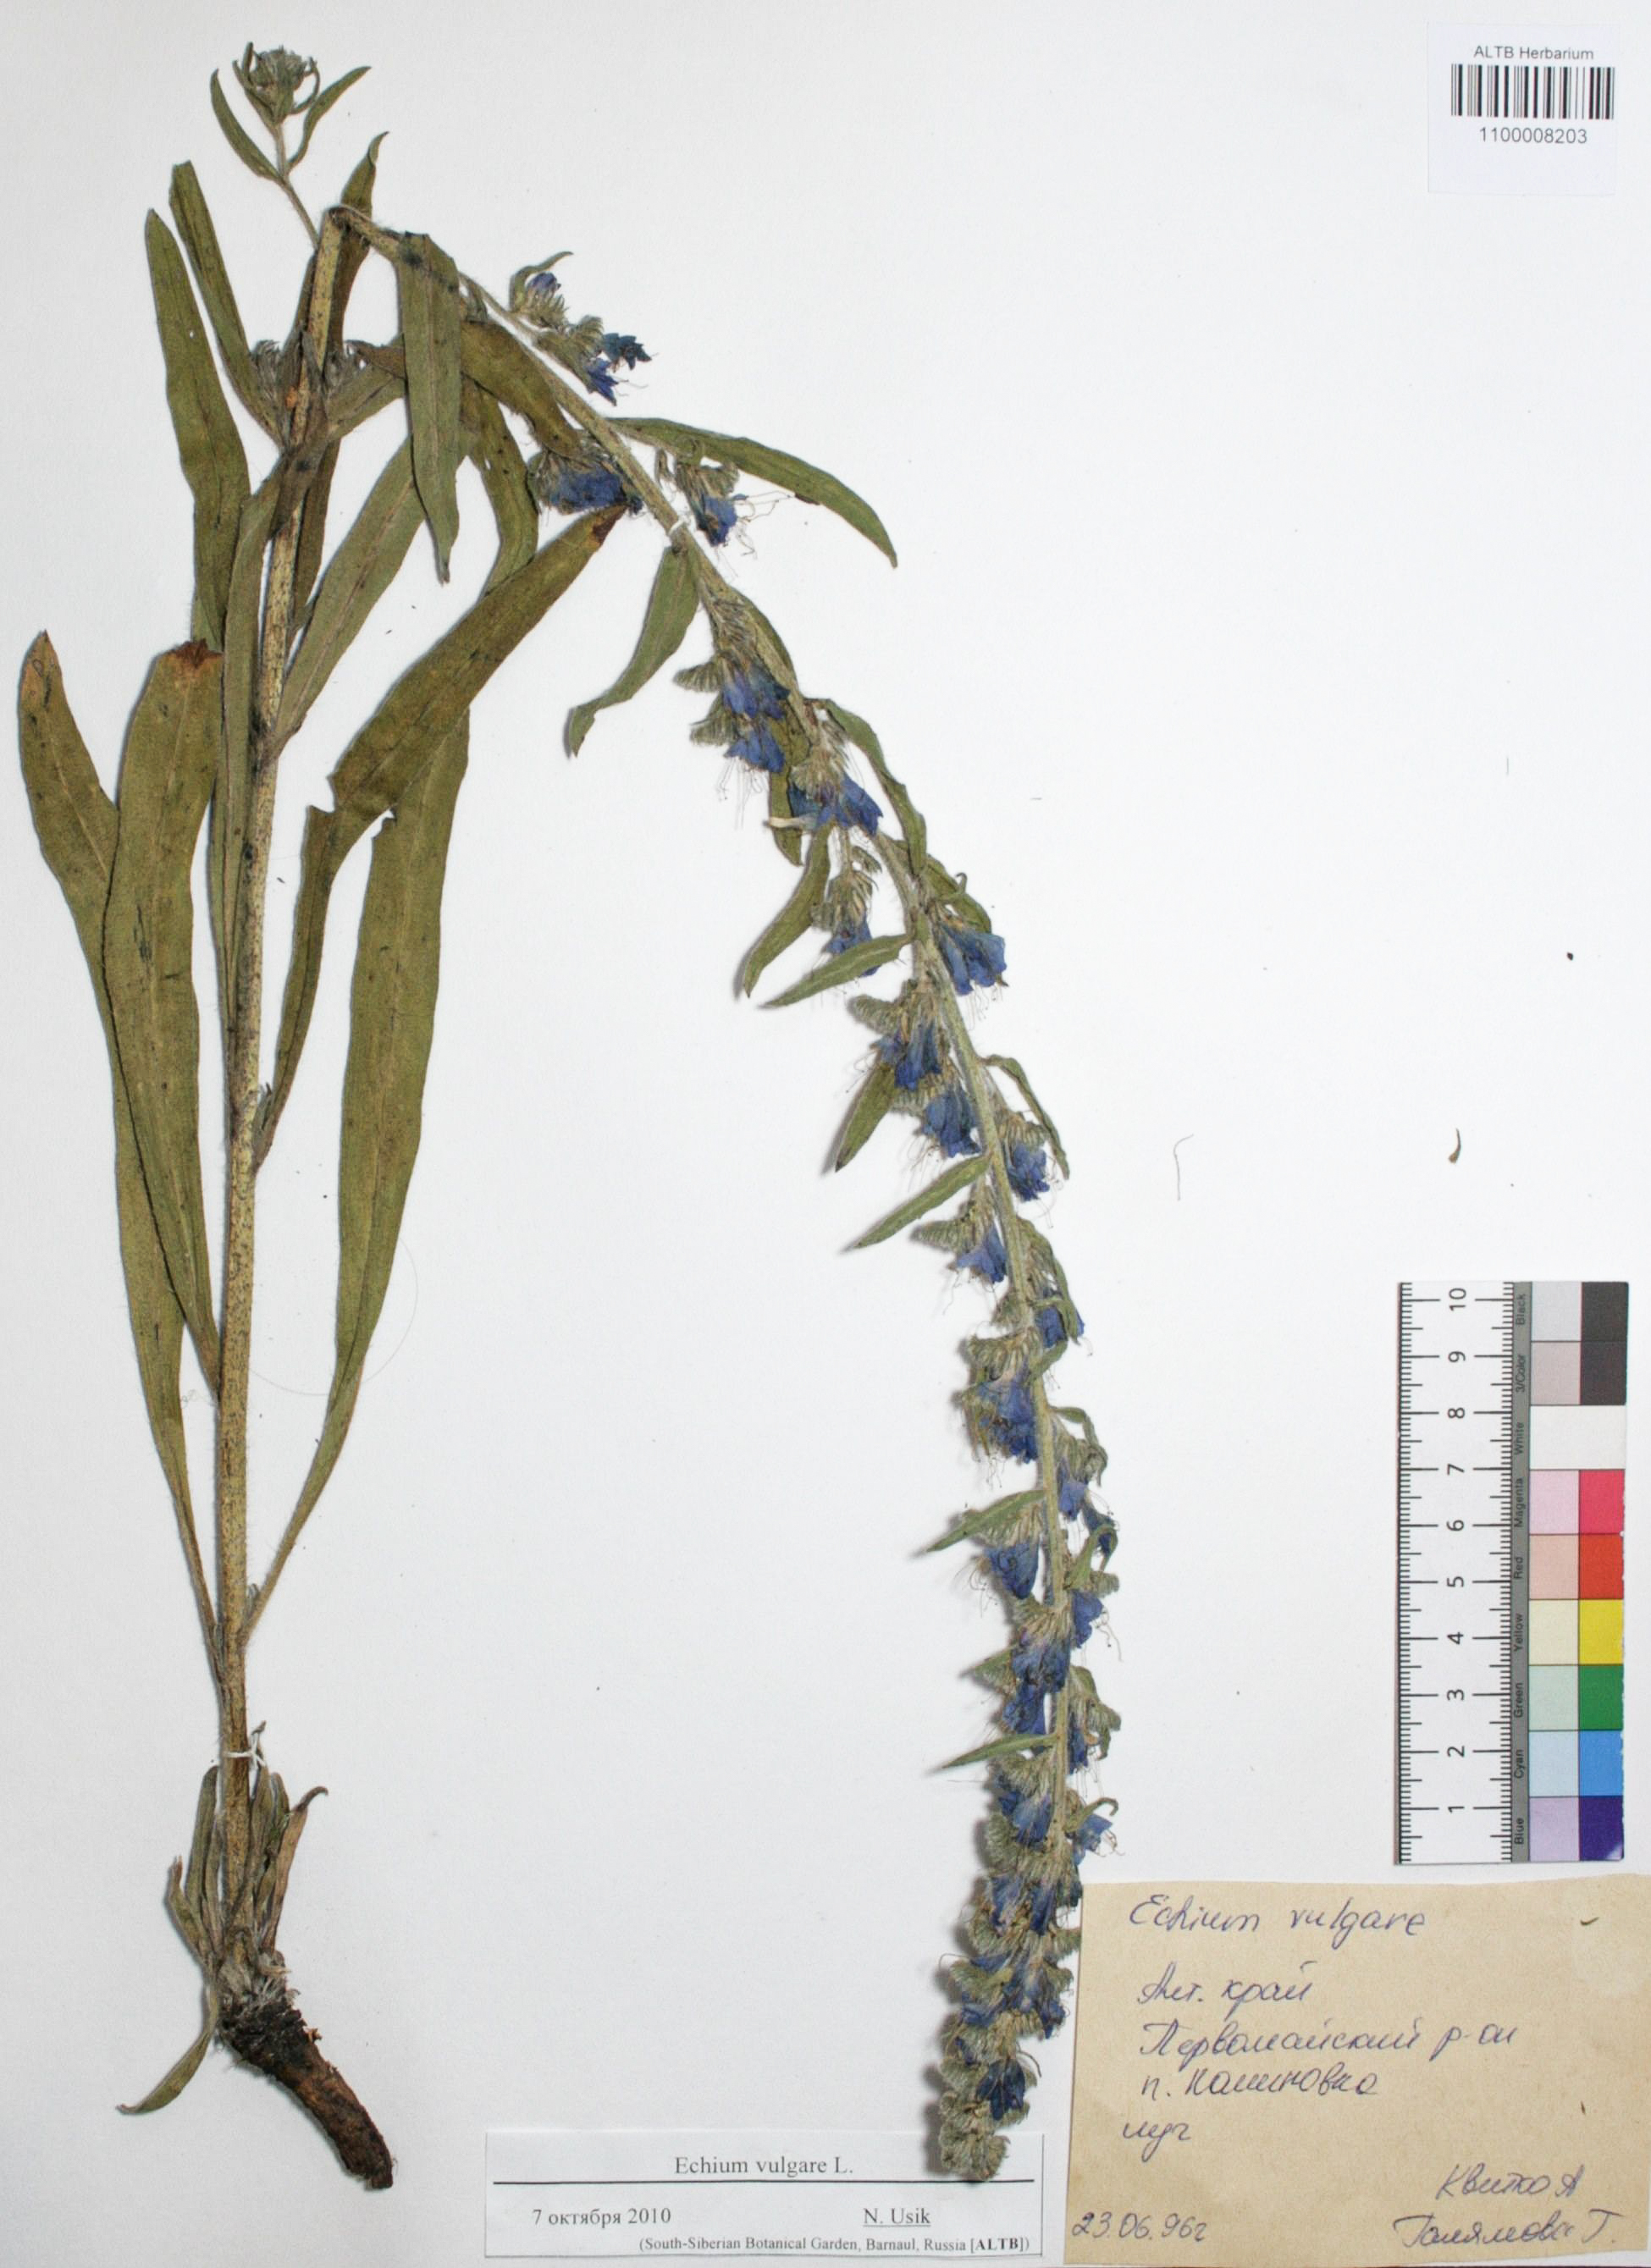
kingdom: Plantae
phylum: Tracheophyta
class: Magnoliopsida
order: Boraginales
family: Boraginaceae
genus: Echium
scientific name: Echium vulgare
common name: Common viper's bugloss
